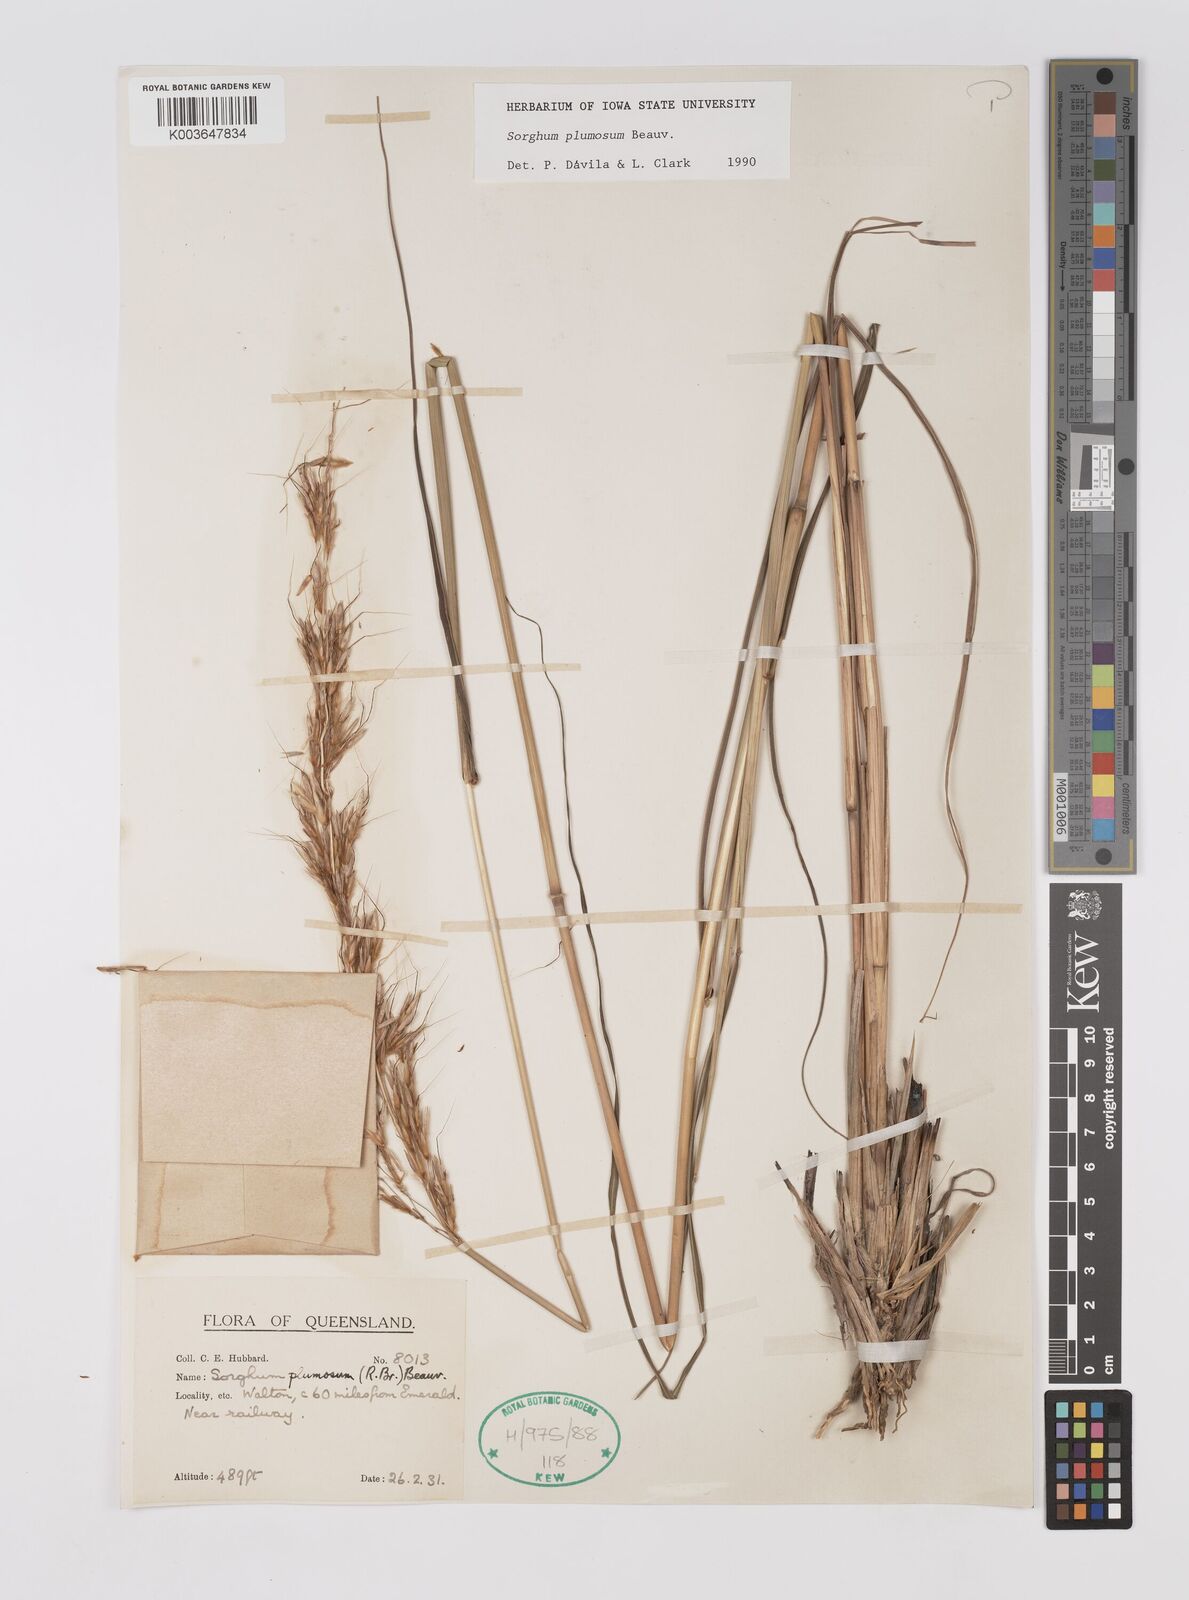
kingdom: Plantae
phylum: Tracheophyta
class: Liliopsida
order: Poales
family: Poaceae
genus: Sarga
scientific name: Sarga plumosa
